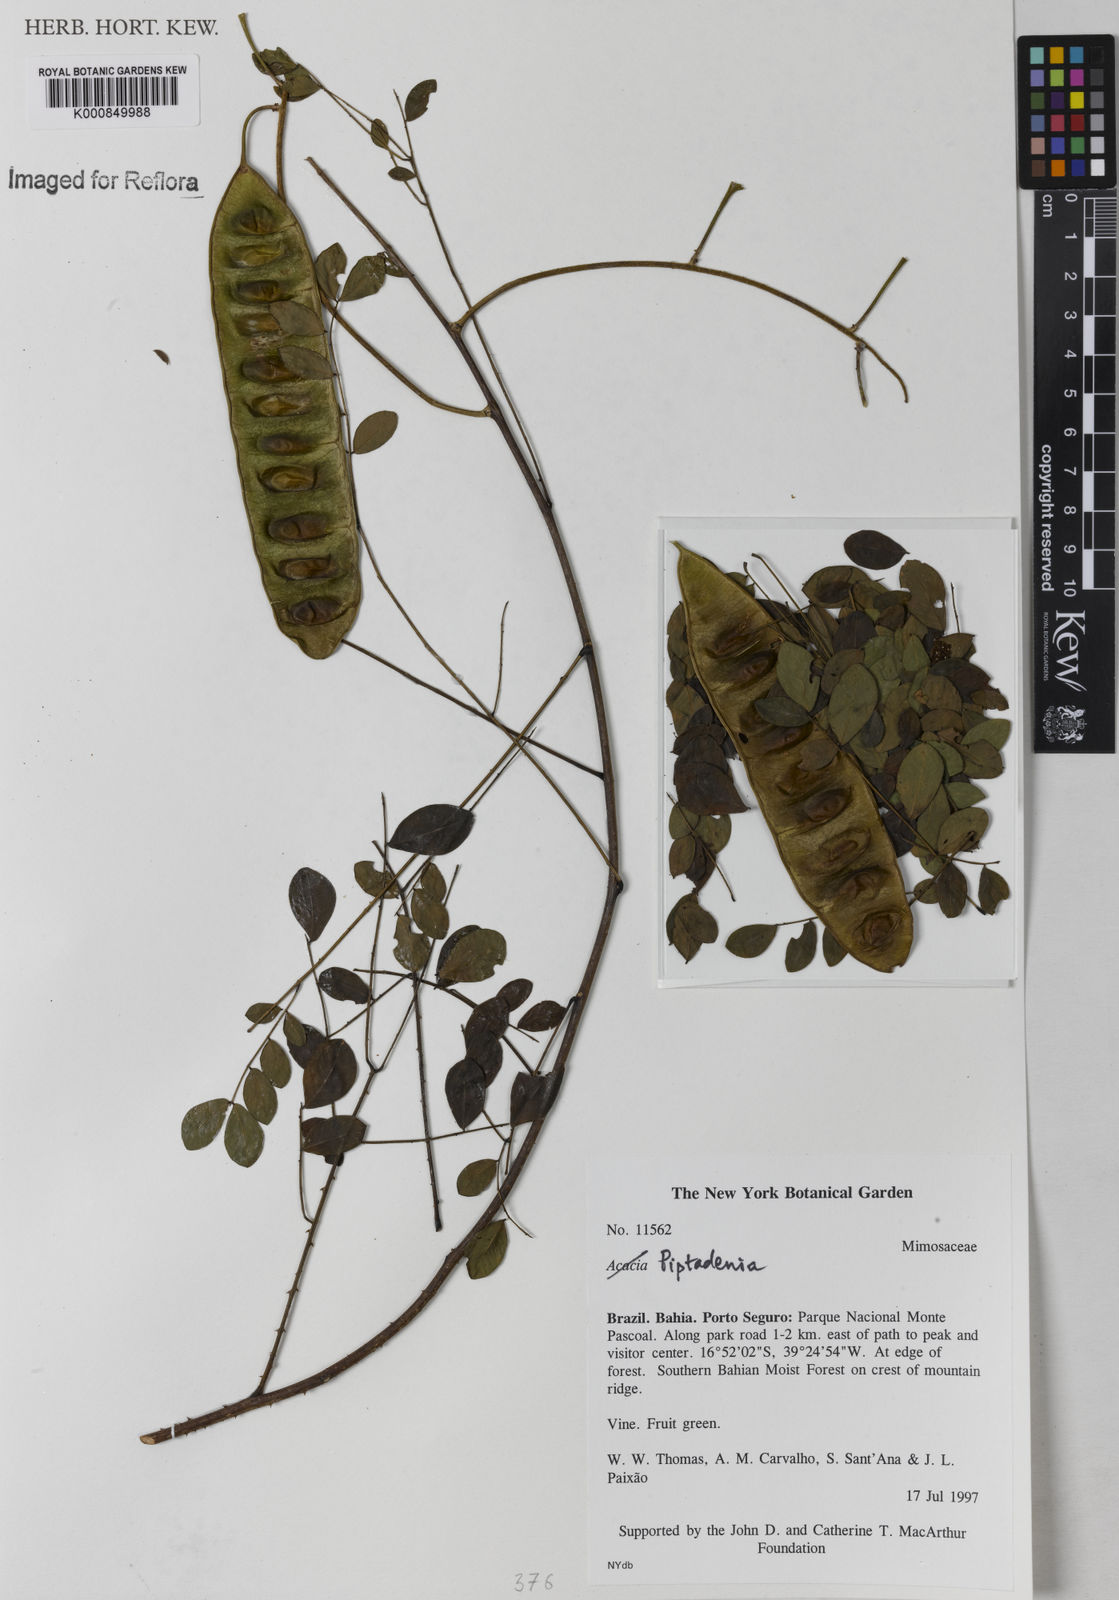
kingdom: Plantae
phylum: Tracheophyta
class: Magnoliopsida
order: Fabales
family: Fabaceae
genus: Piptadenia
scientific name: Piptadenia
